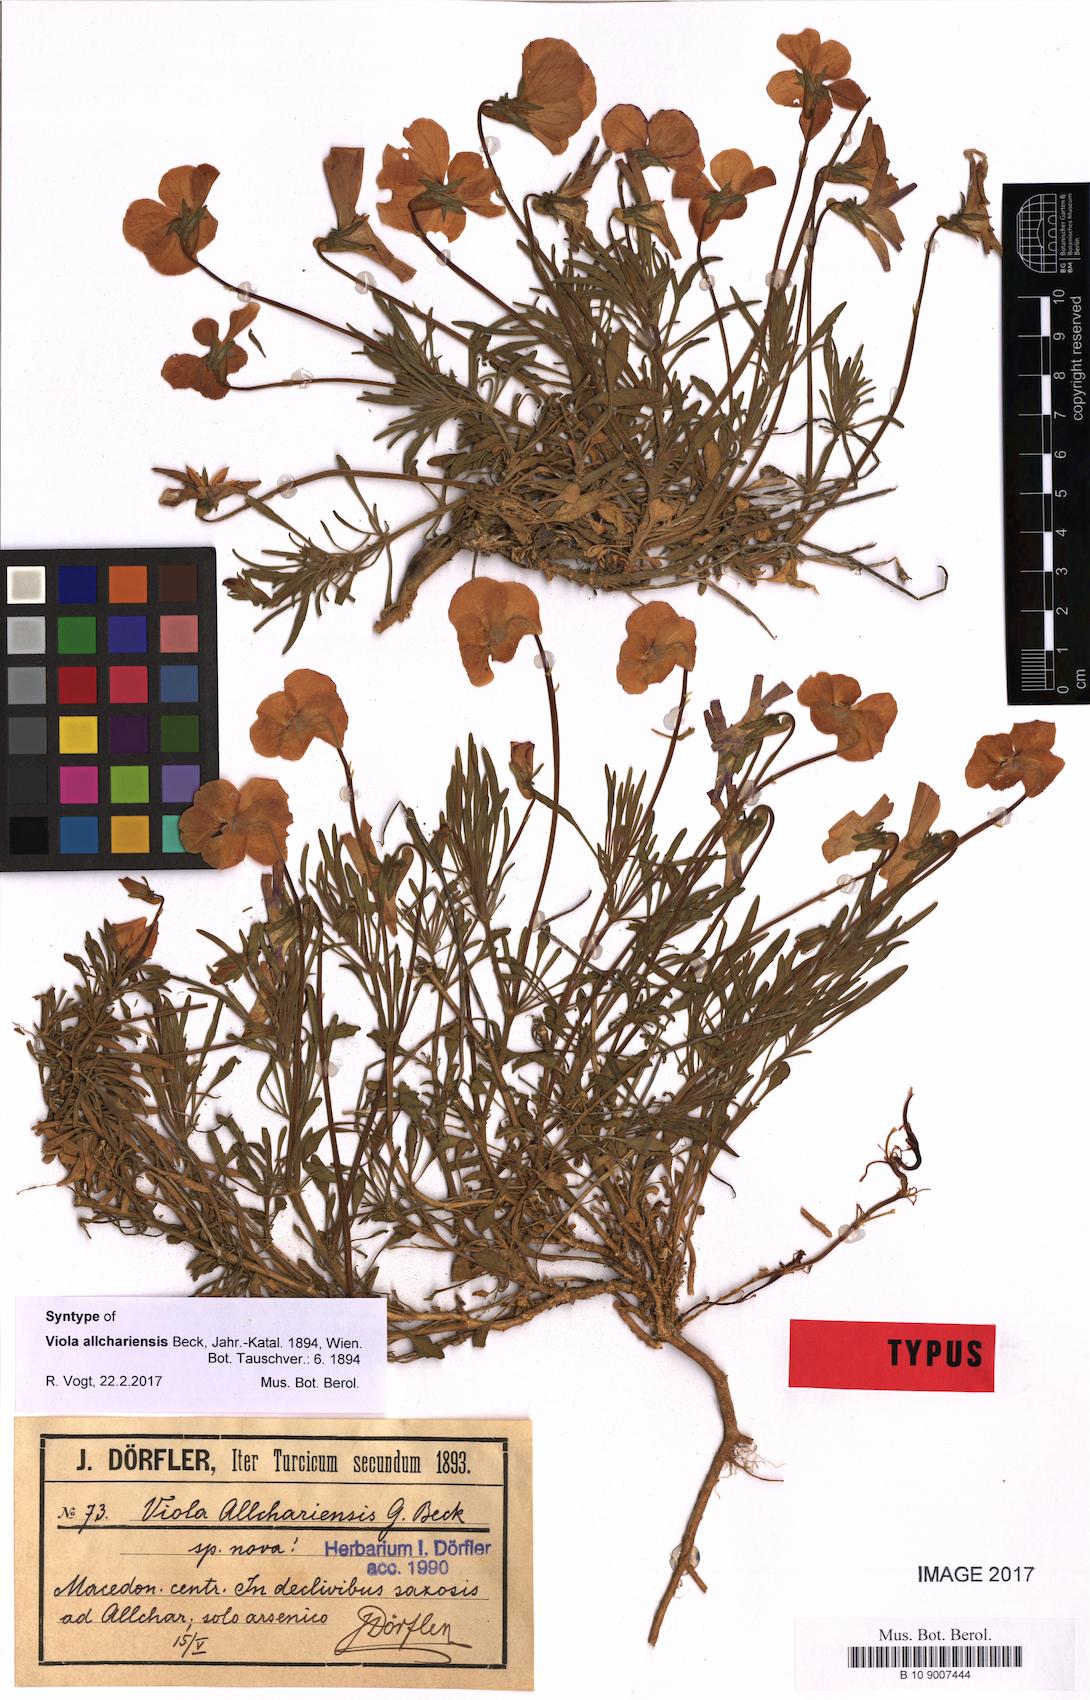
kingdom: Plantae
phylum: Tracheophyta
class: Magnoliopsida
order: Malpighiales
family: Violaceae
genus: Viola
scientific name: Viola allchariensis
